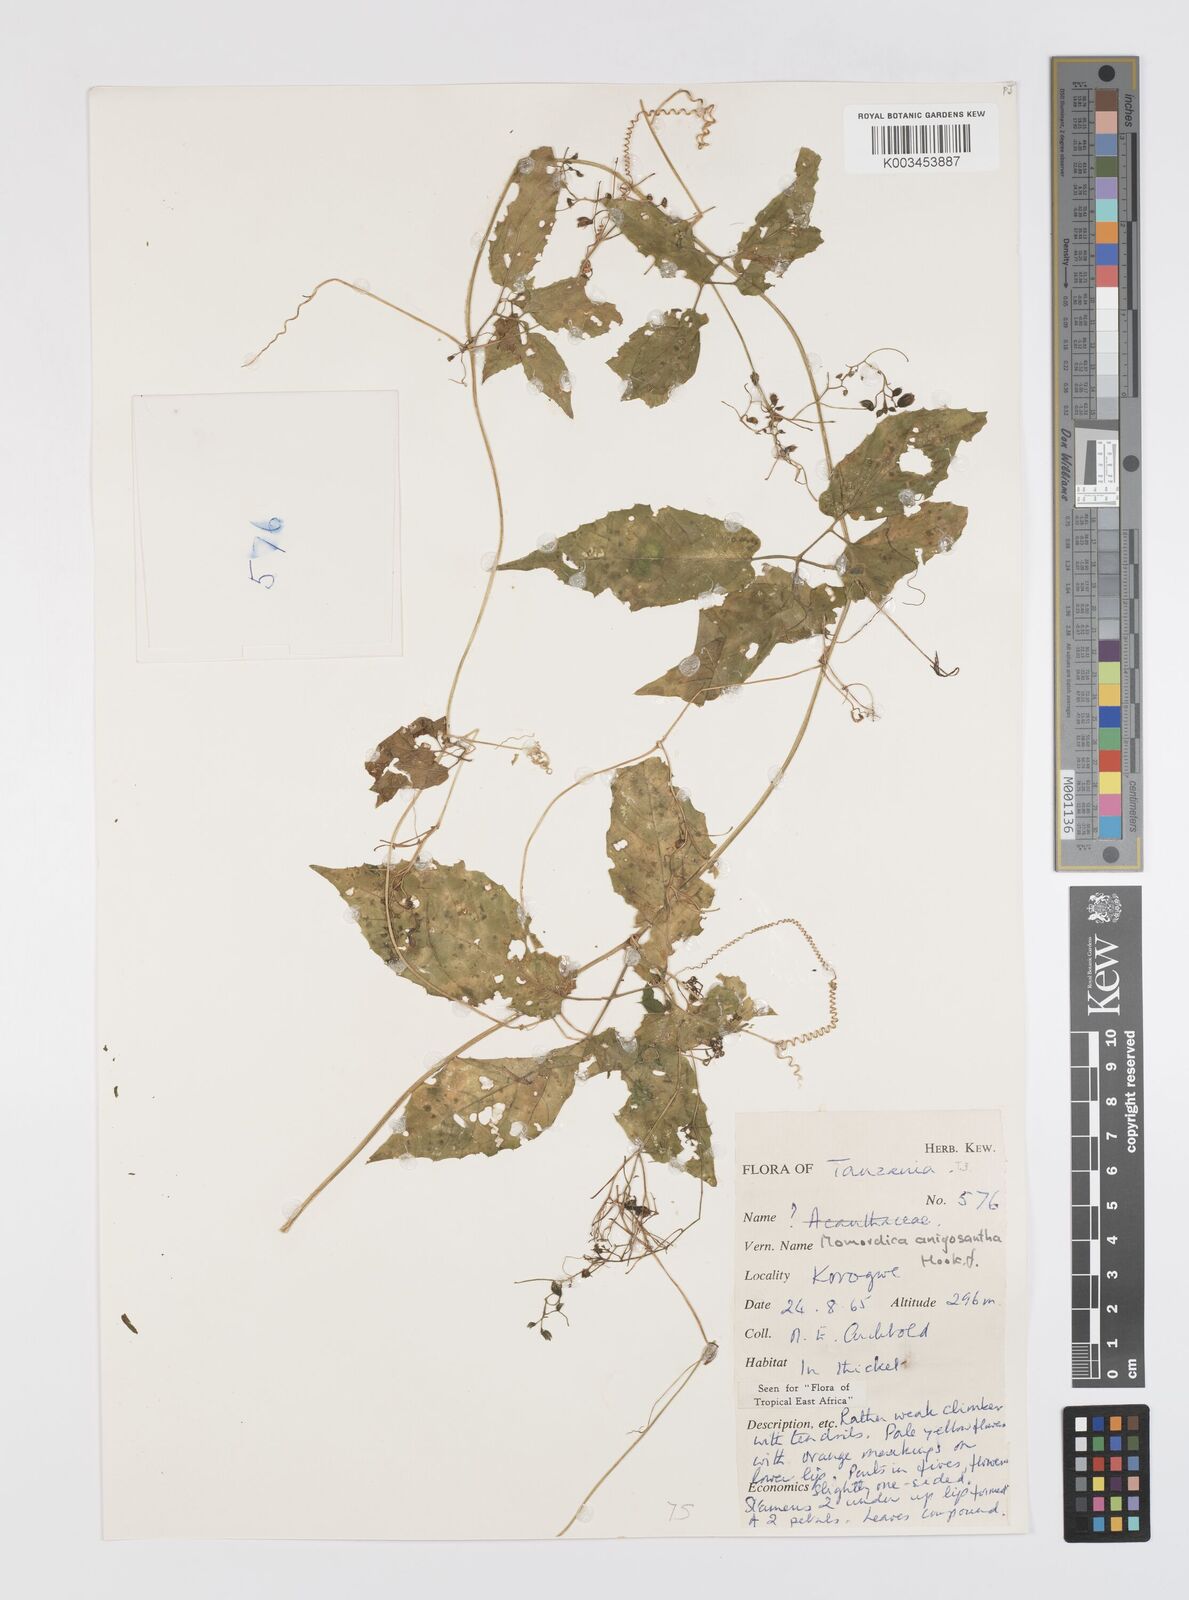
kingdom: Plantae
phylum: Tracheophyta
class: Magnoliopsida
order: Cucurbitales
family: Cucurbitaceae
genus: Momordica
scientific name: Momordica anigosantha
